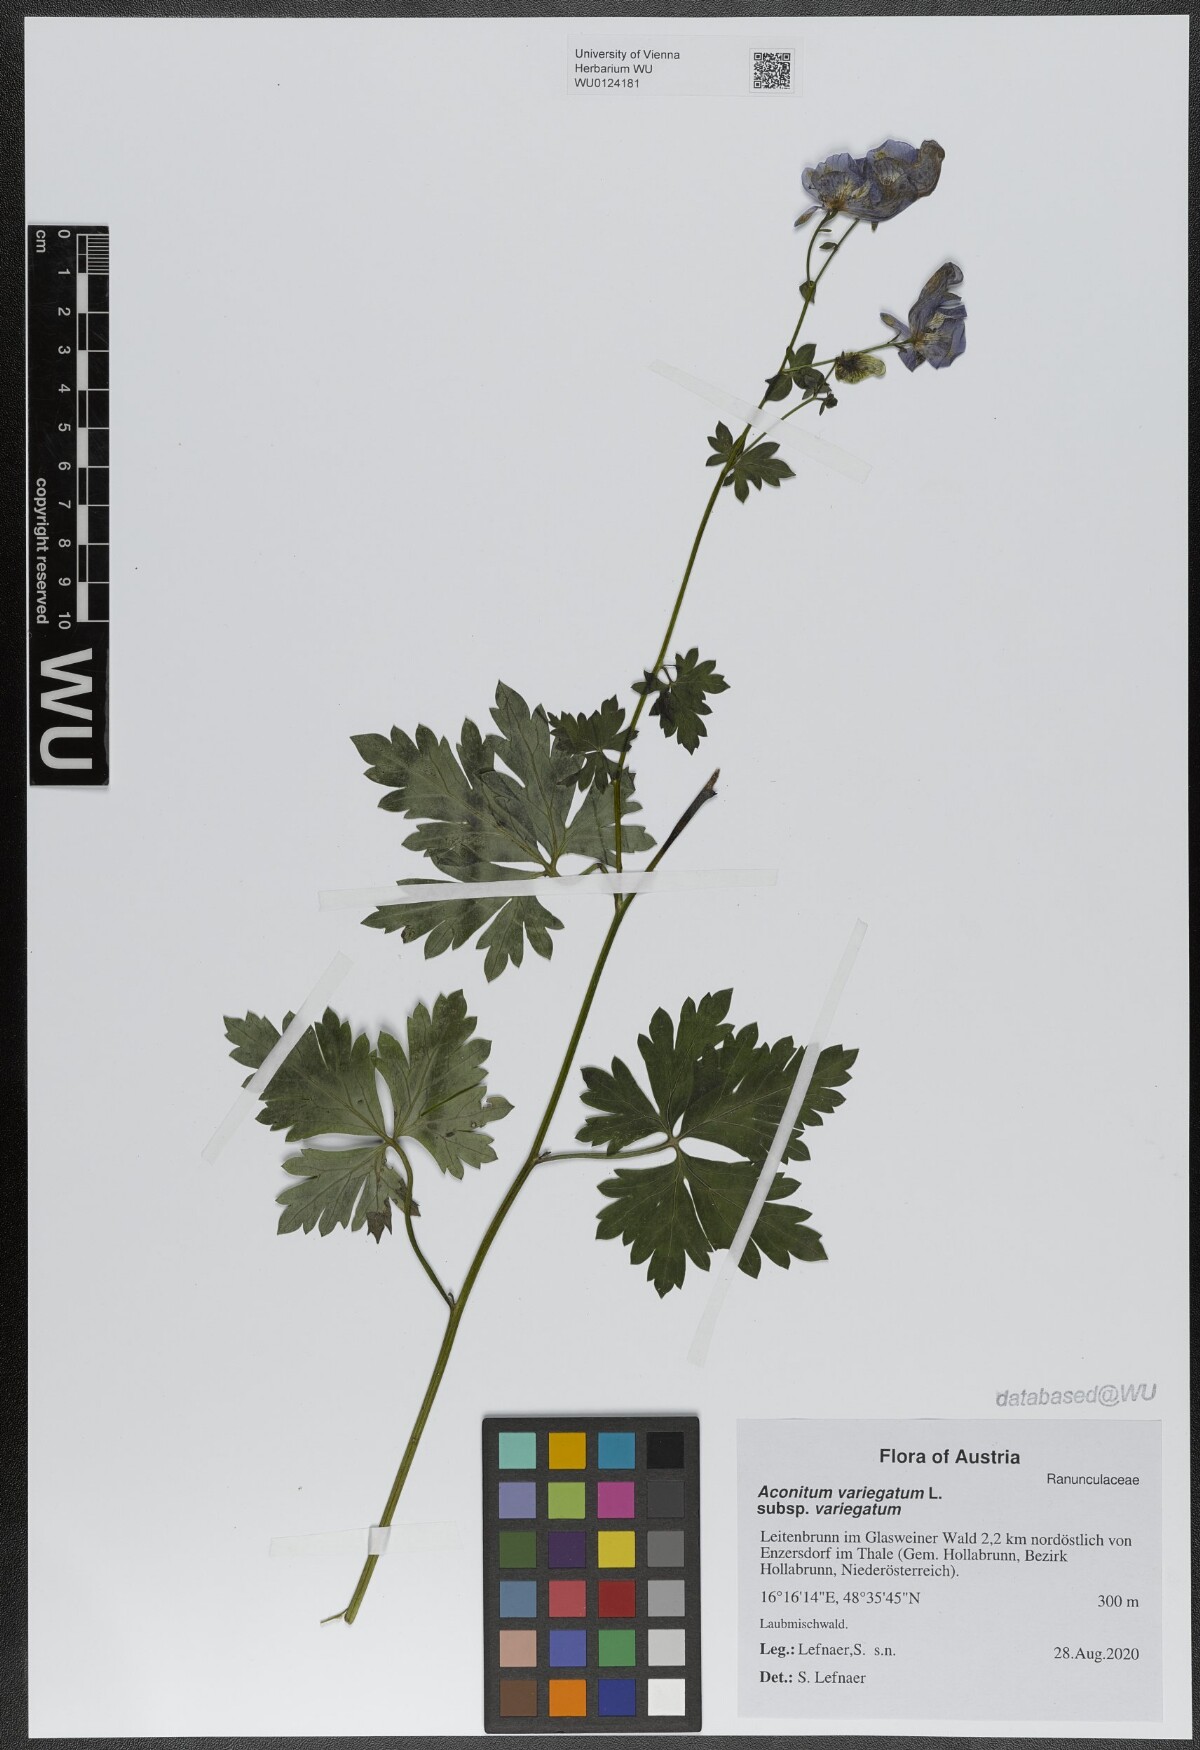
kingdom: Plantae
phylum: Tracheophyta
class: Magnoliopsida
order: Ranunculales
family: Ranunculaceae
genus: Aconitum
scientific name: Aconitum variegatum
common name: Manchurian monkshood
